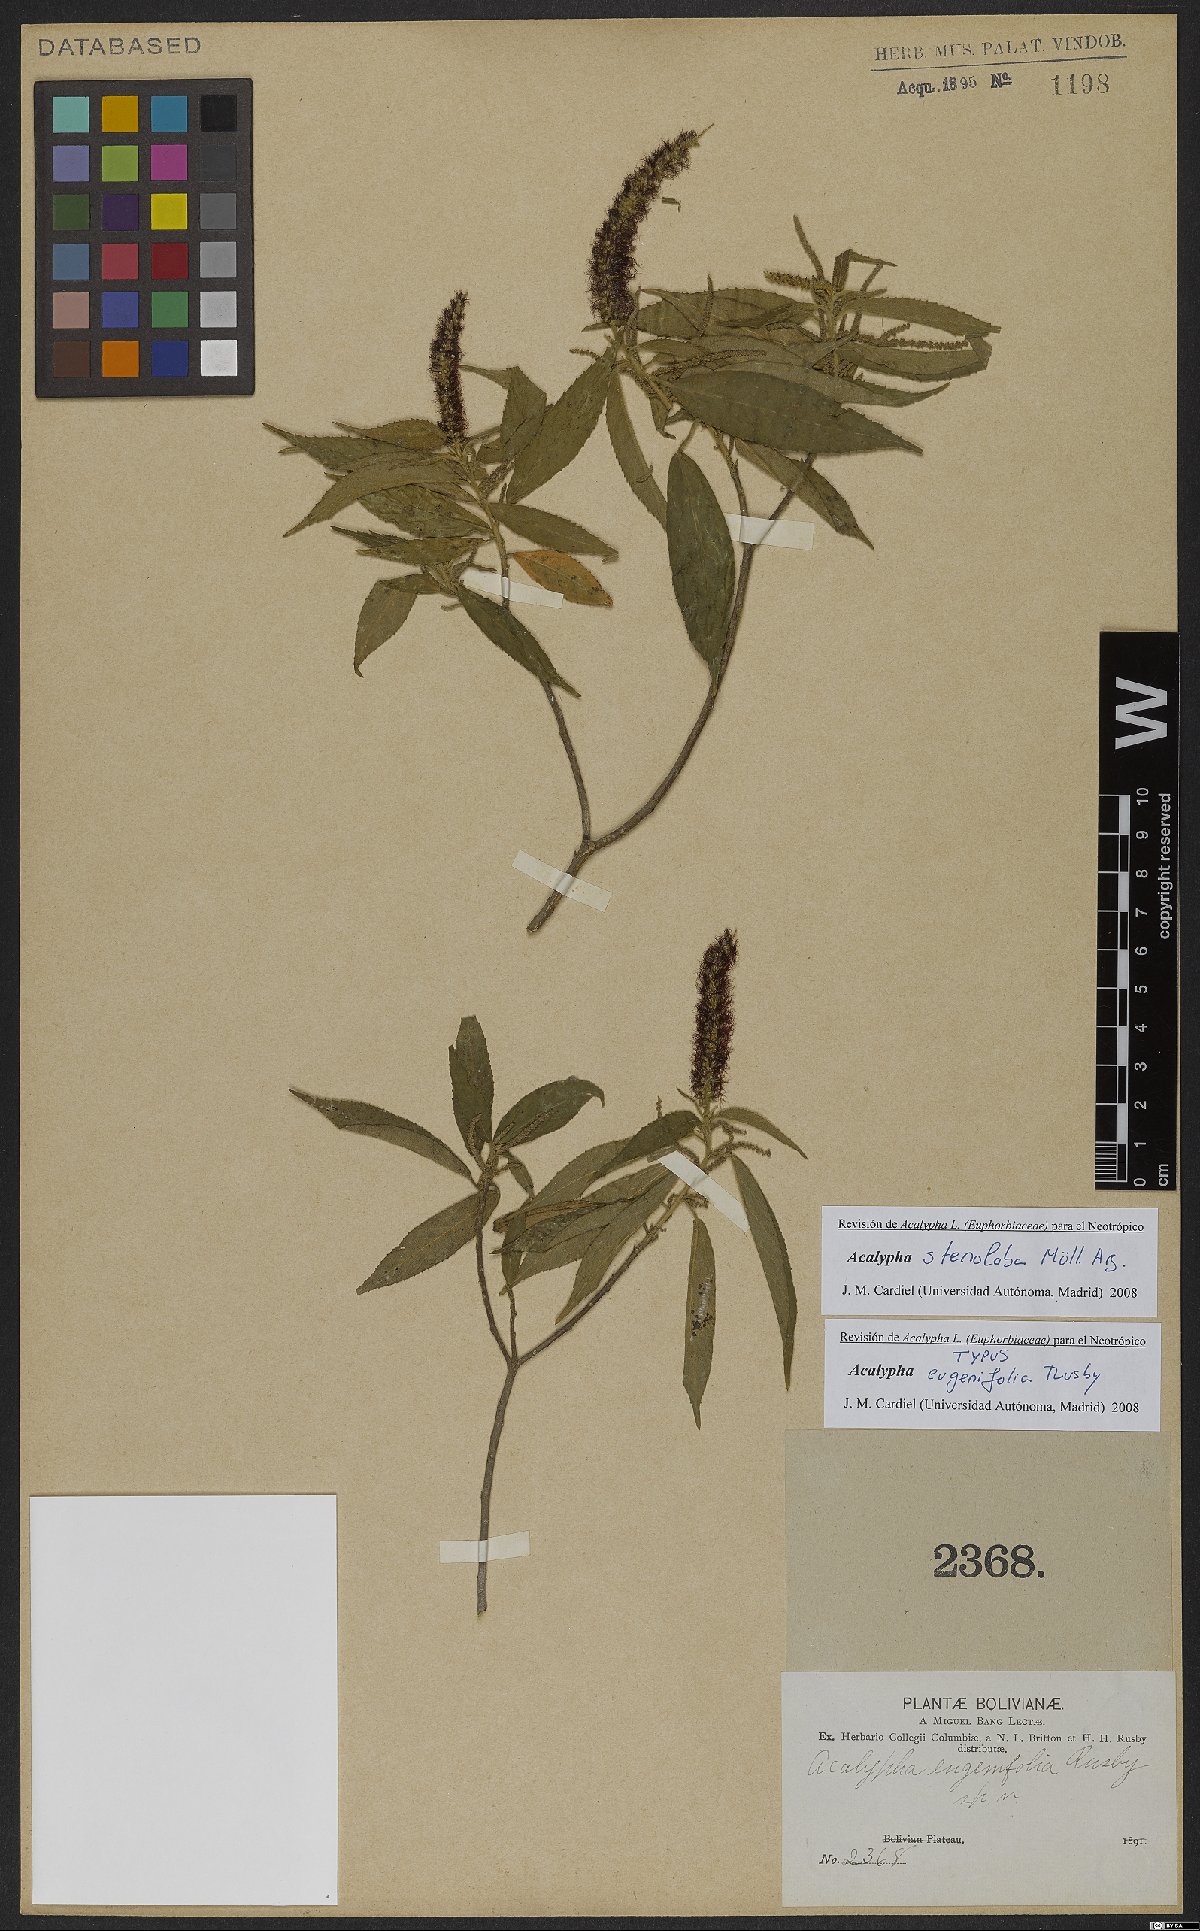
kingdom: Plantae
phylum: Tracheophyta
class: Magnoliopsida
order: Malpighiales
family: Euphorbiaceae
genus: Acalypha
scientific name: Acalypha stenoloba
